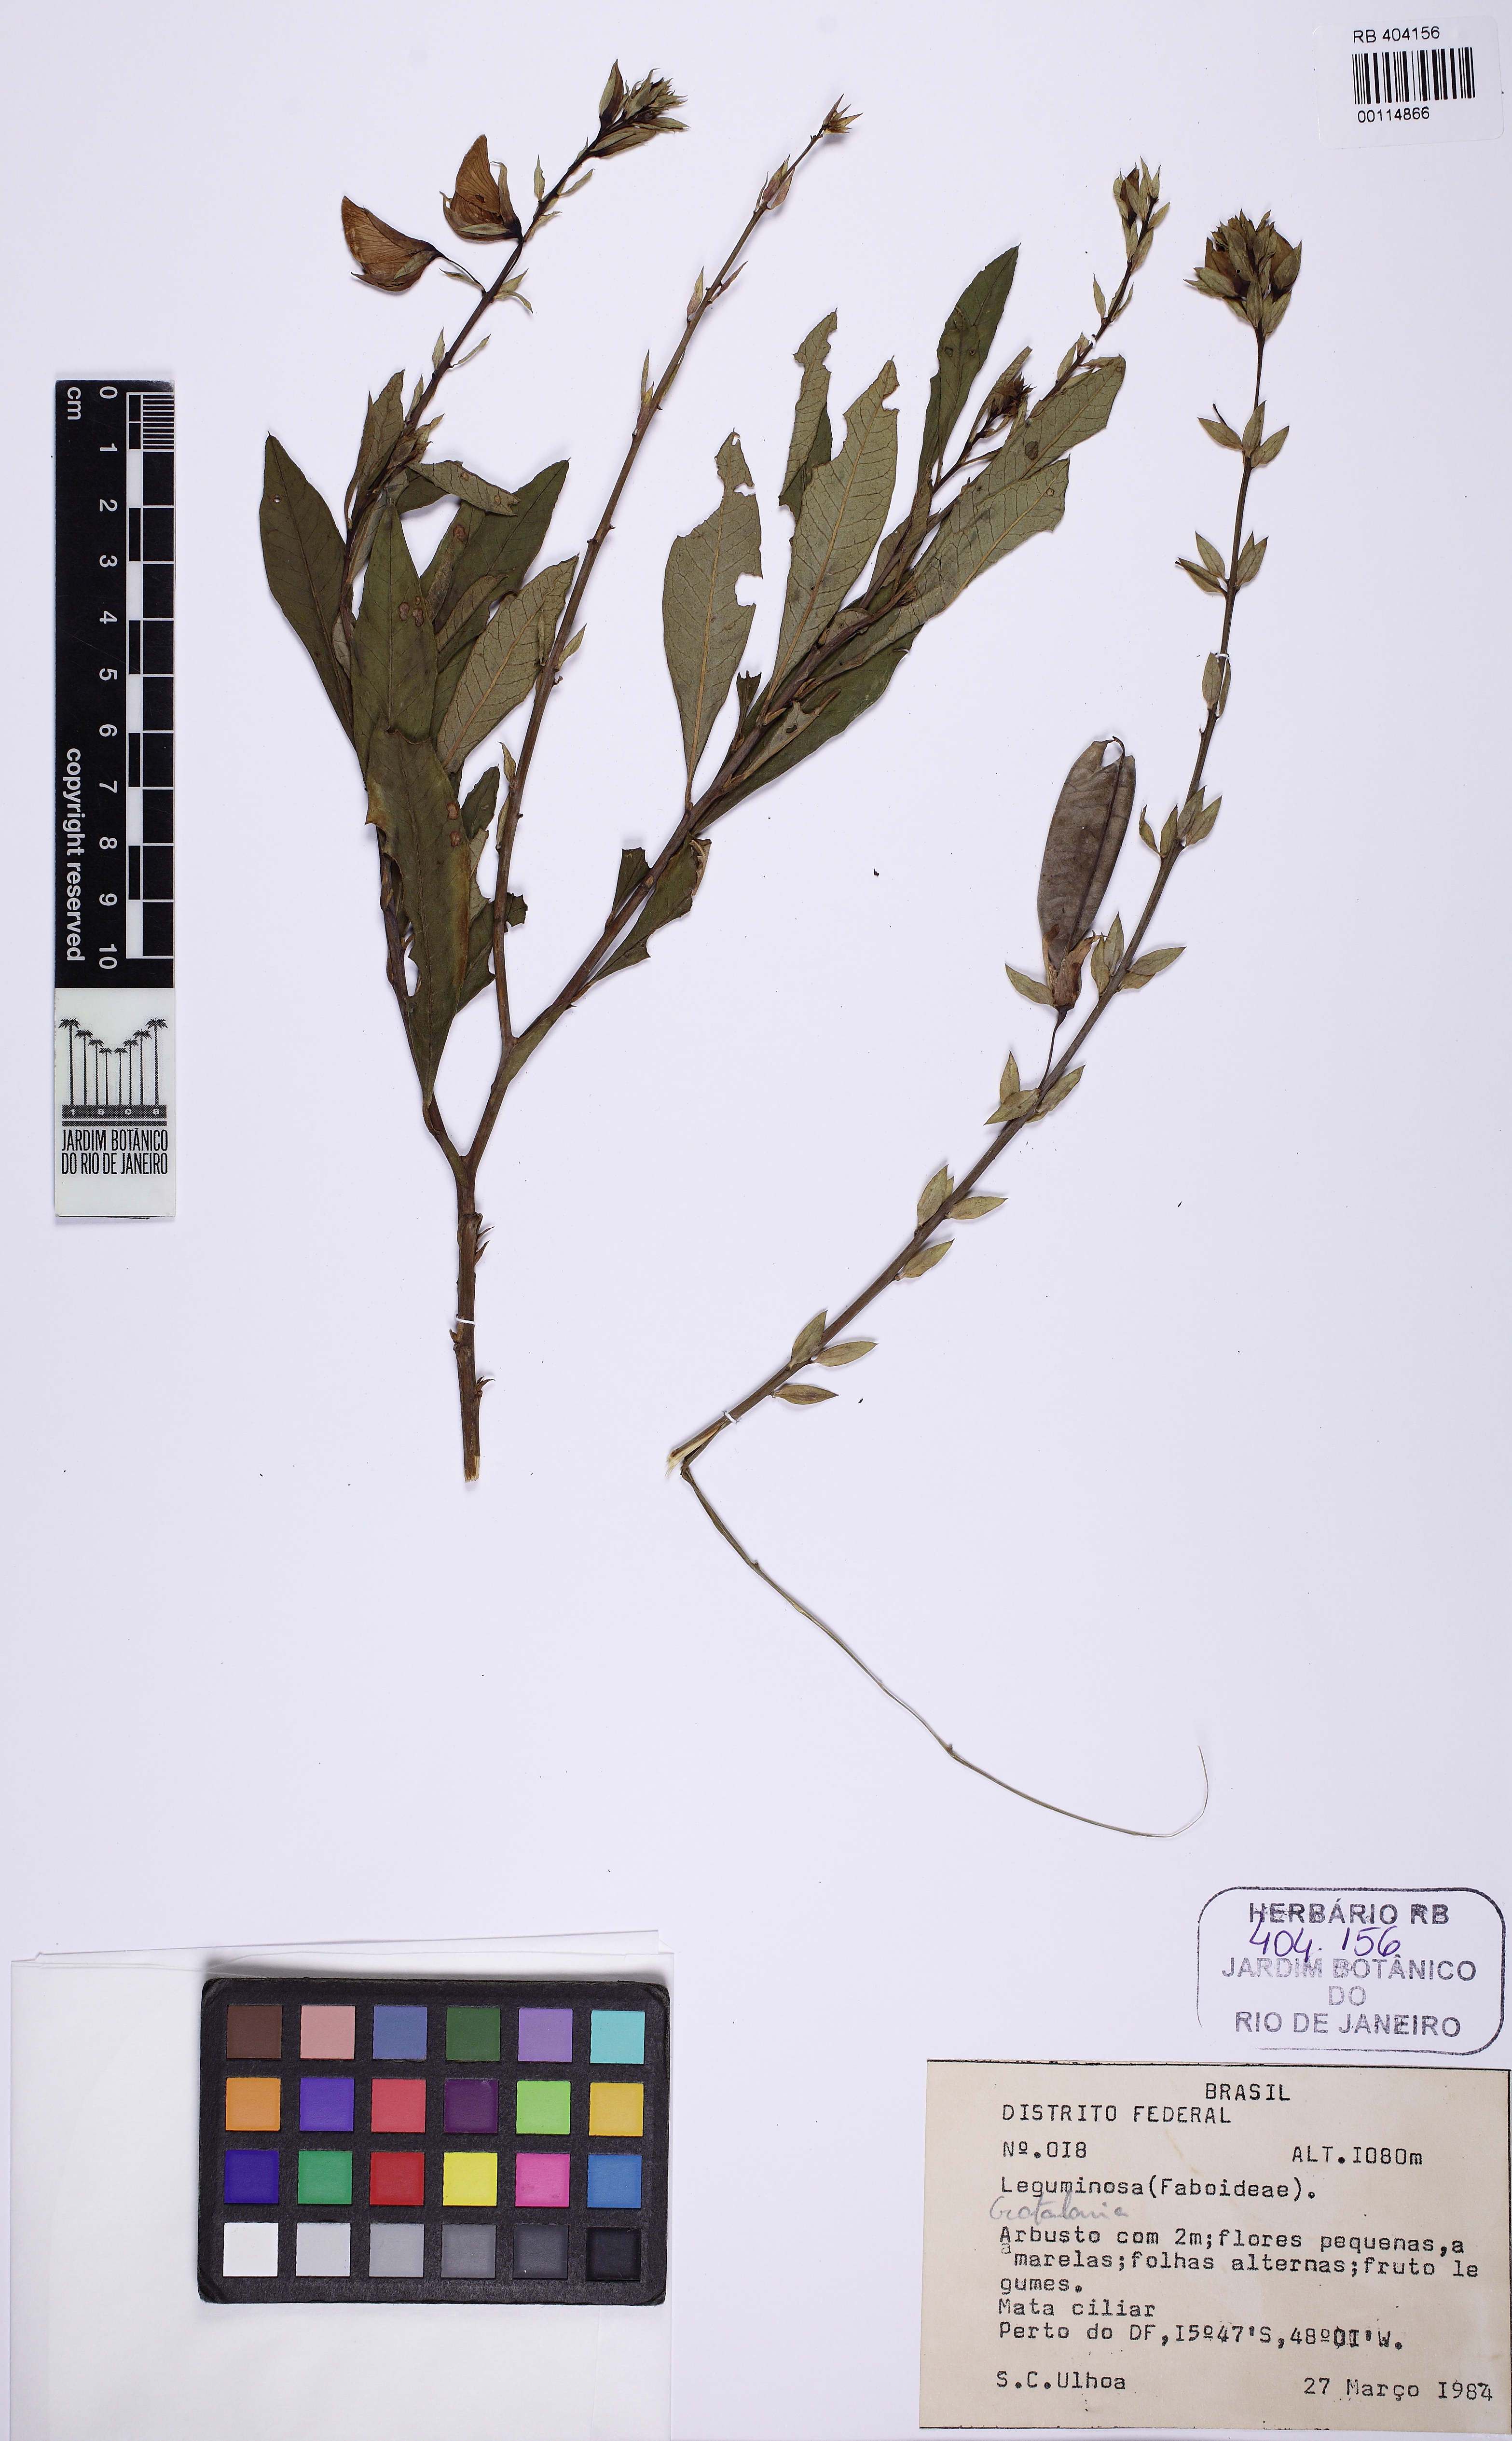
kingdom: Plantae
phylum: Tracheophyta
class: Magnoliopsida
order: Fabales
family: Fabaceae
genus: Crotalaria
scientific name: Crotalaria
